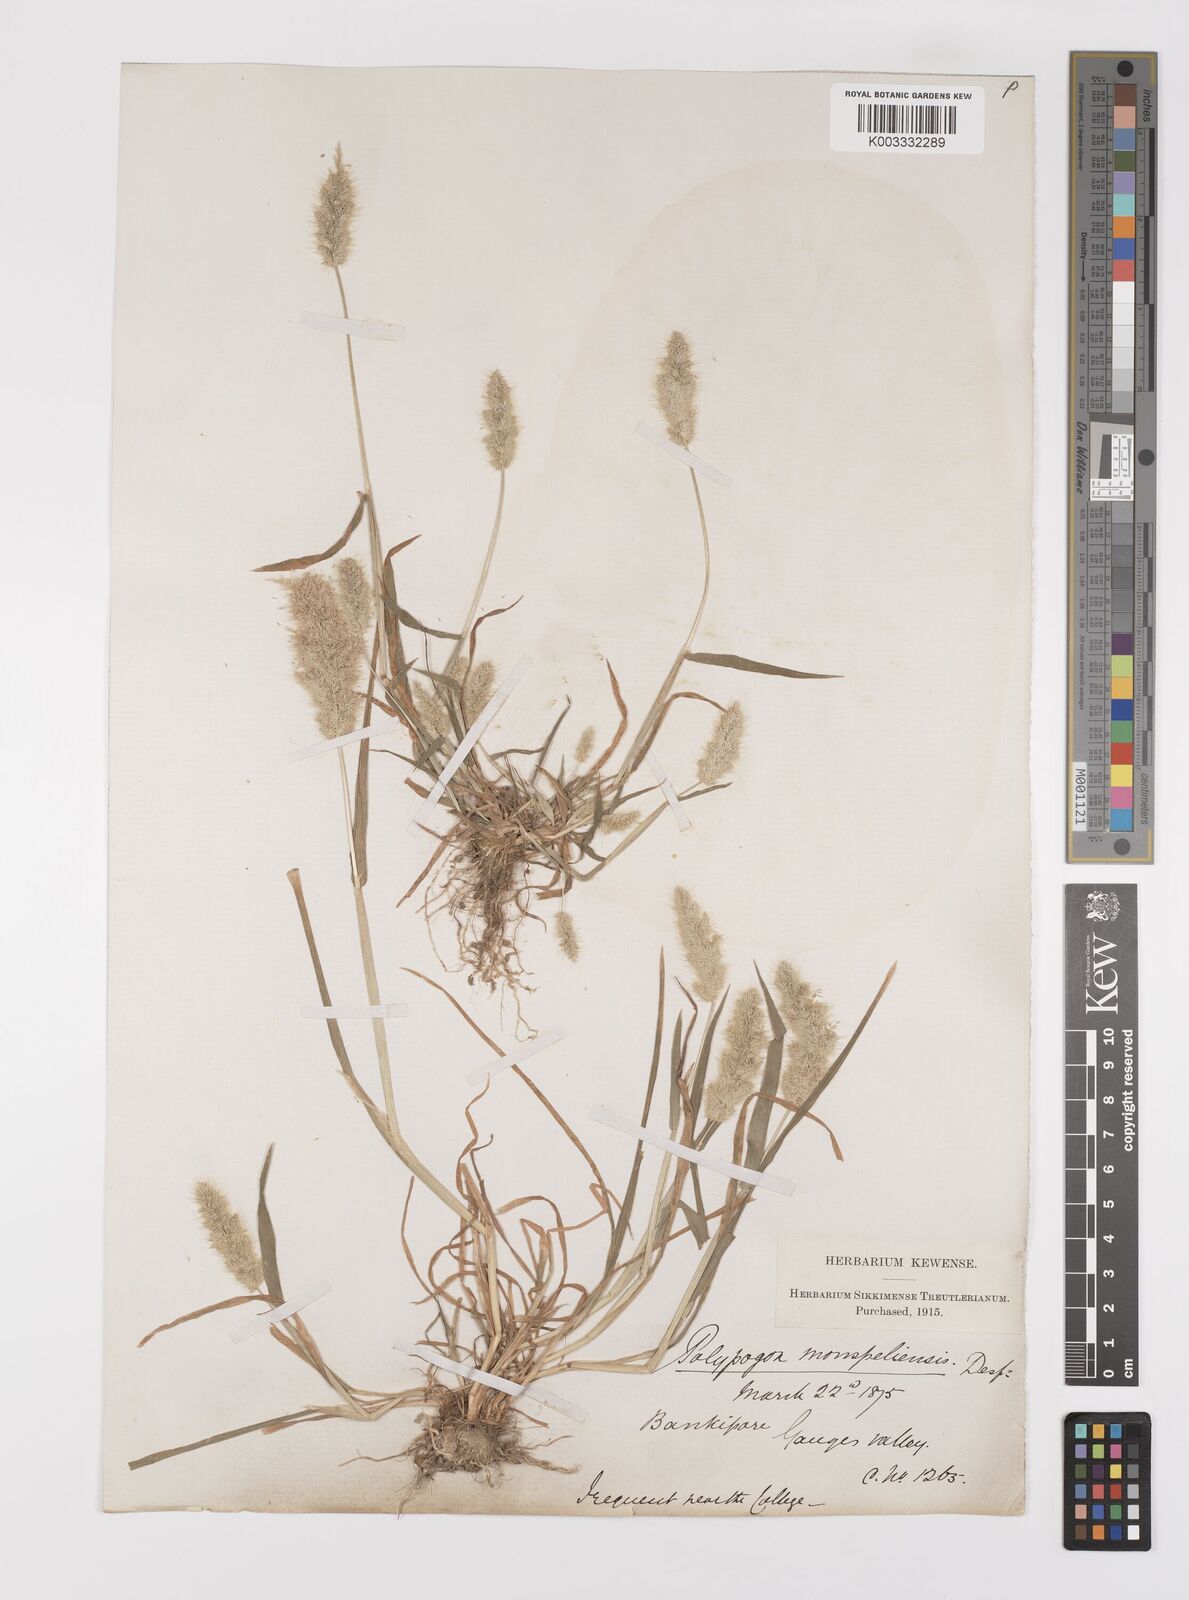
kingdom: Plantae
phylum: Tracheophyta
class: Liliopsida
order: Poales
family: Poaceae
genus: Polypogon
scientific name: Polypogon monspeliensis
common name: Annual rabbitsfoot grass
